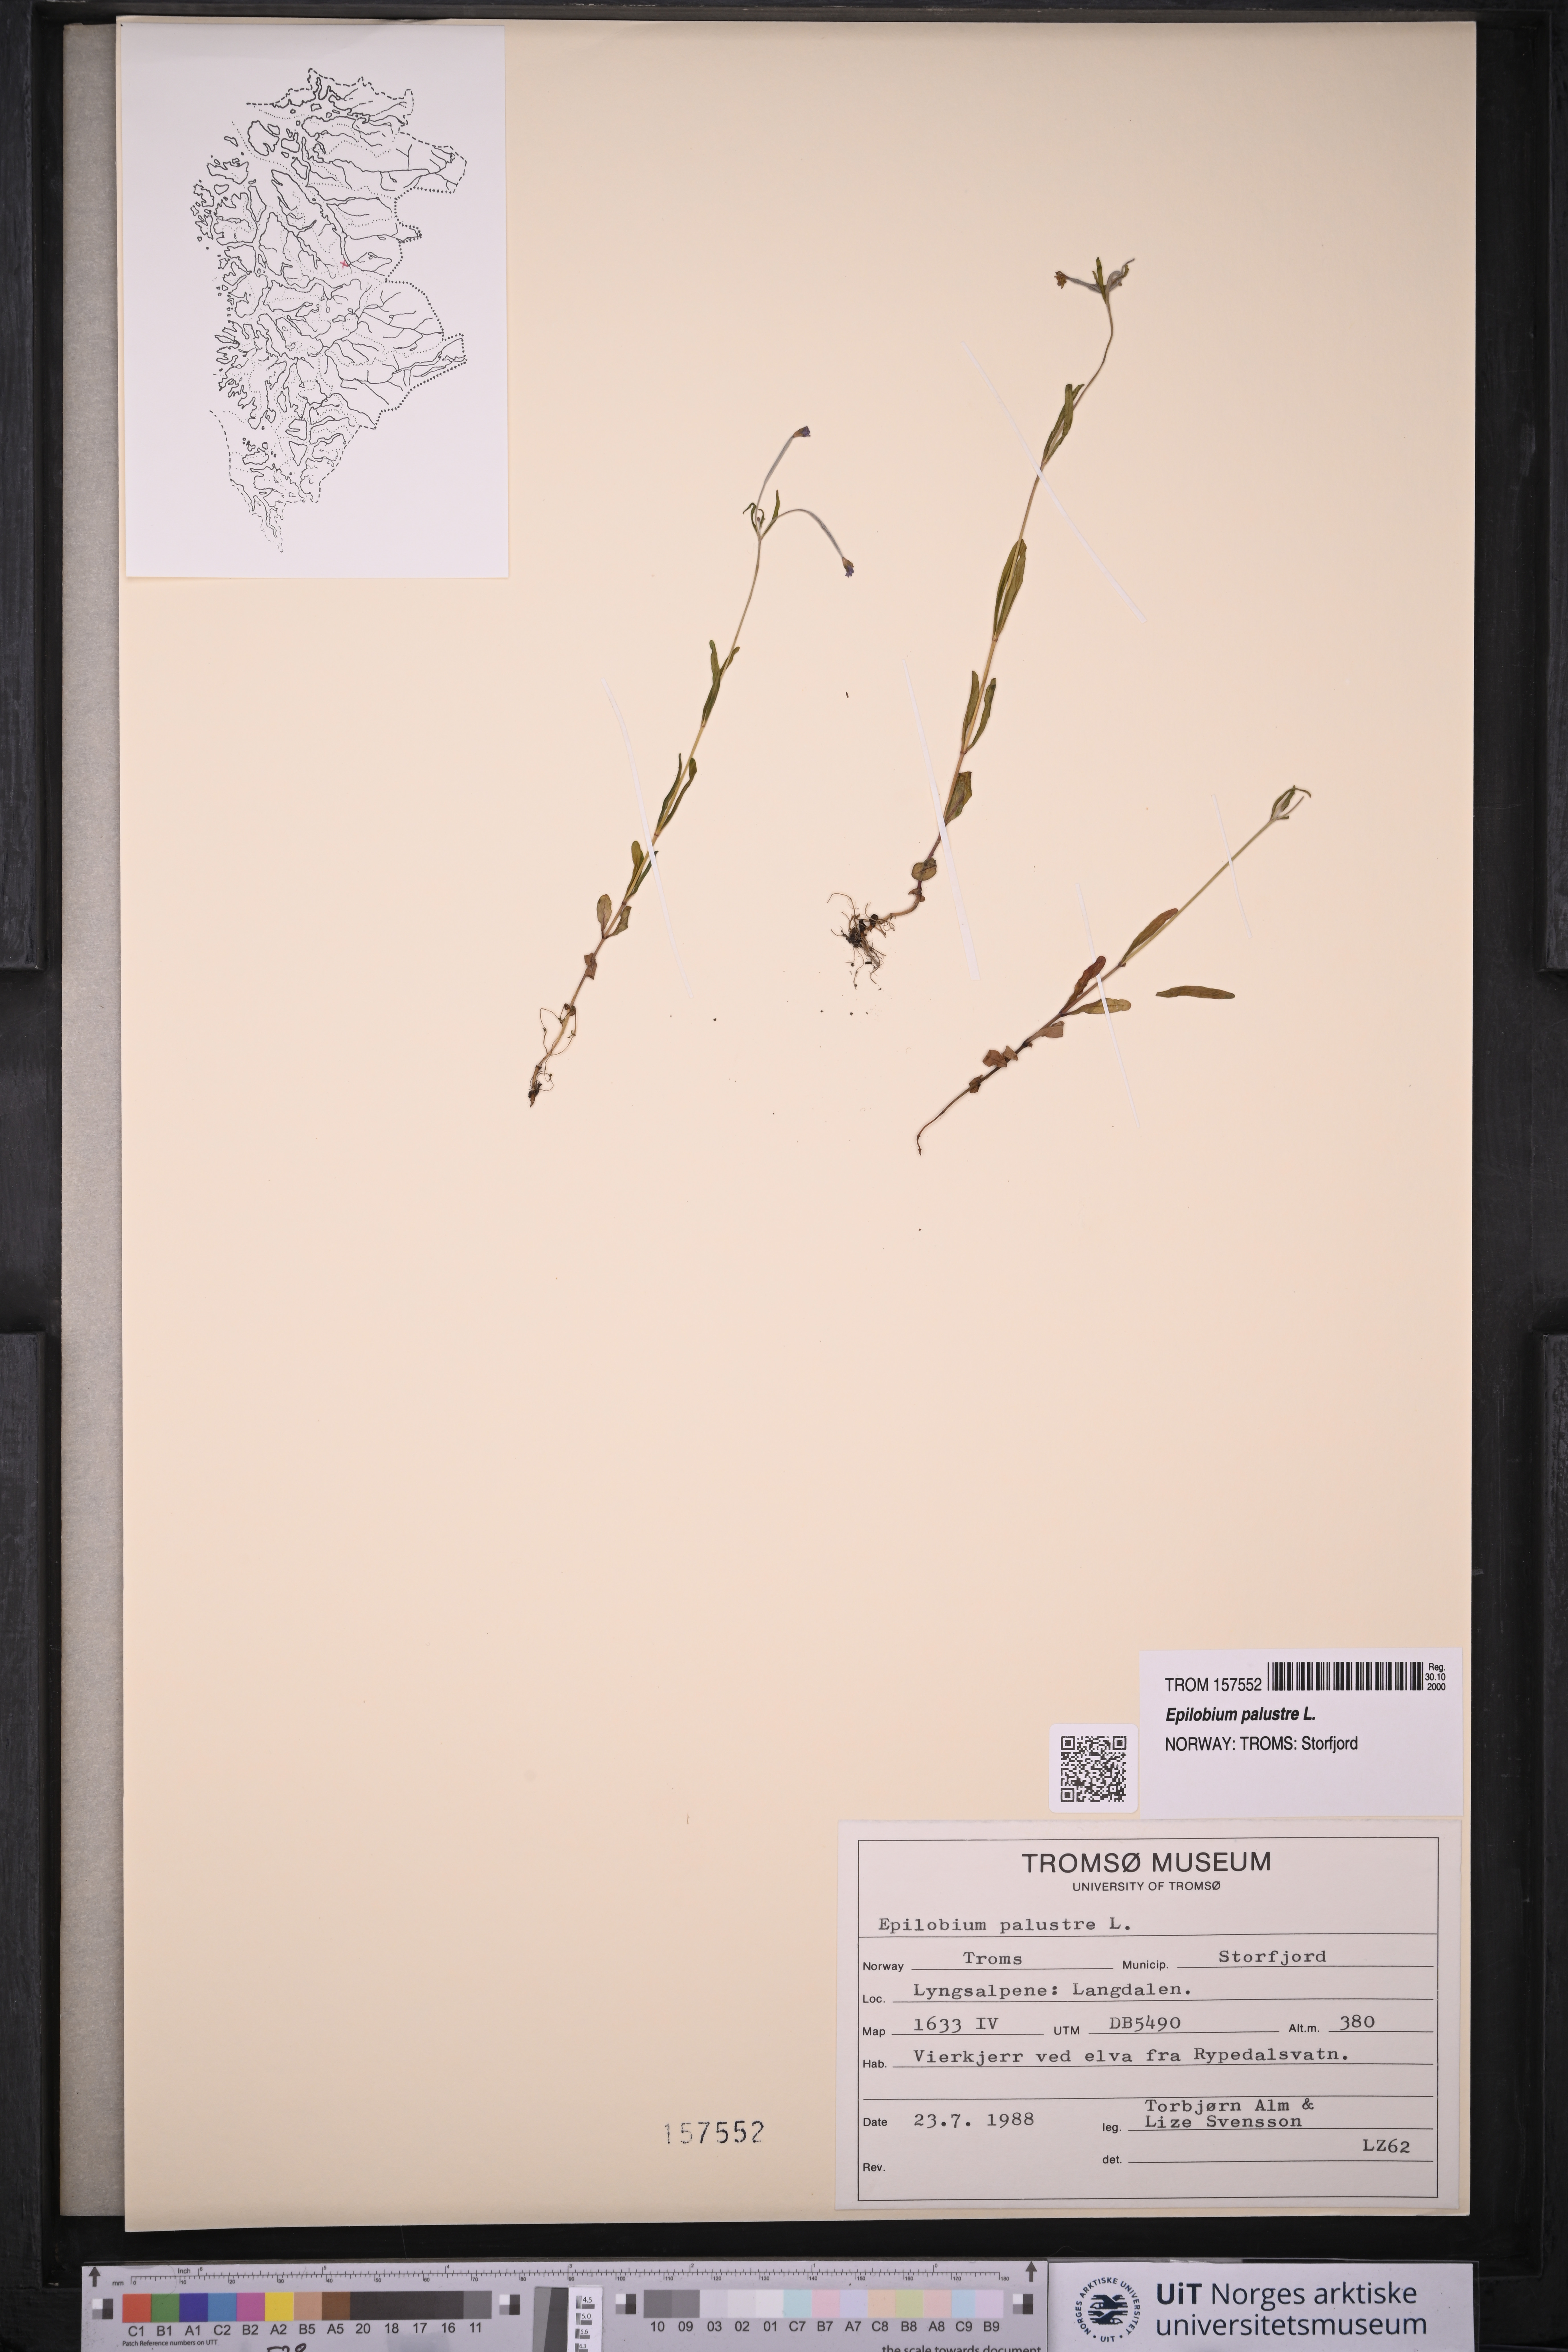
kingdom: Plantae
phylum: Tracheophyta
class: Magnoliopsida
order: Myrtales
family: Onagraceae
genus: Epilobium
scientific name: Epilobium palustre
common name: Marsh willowherb
